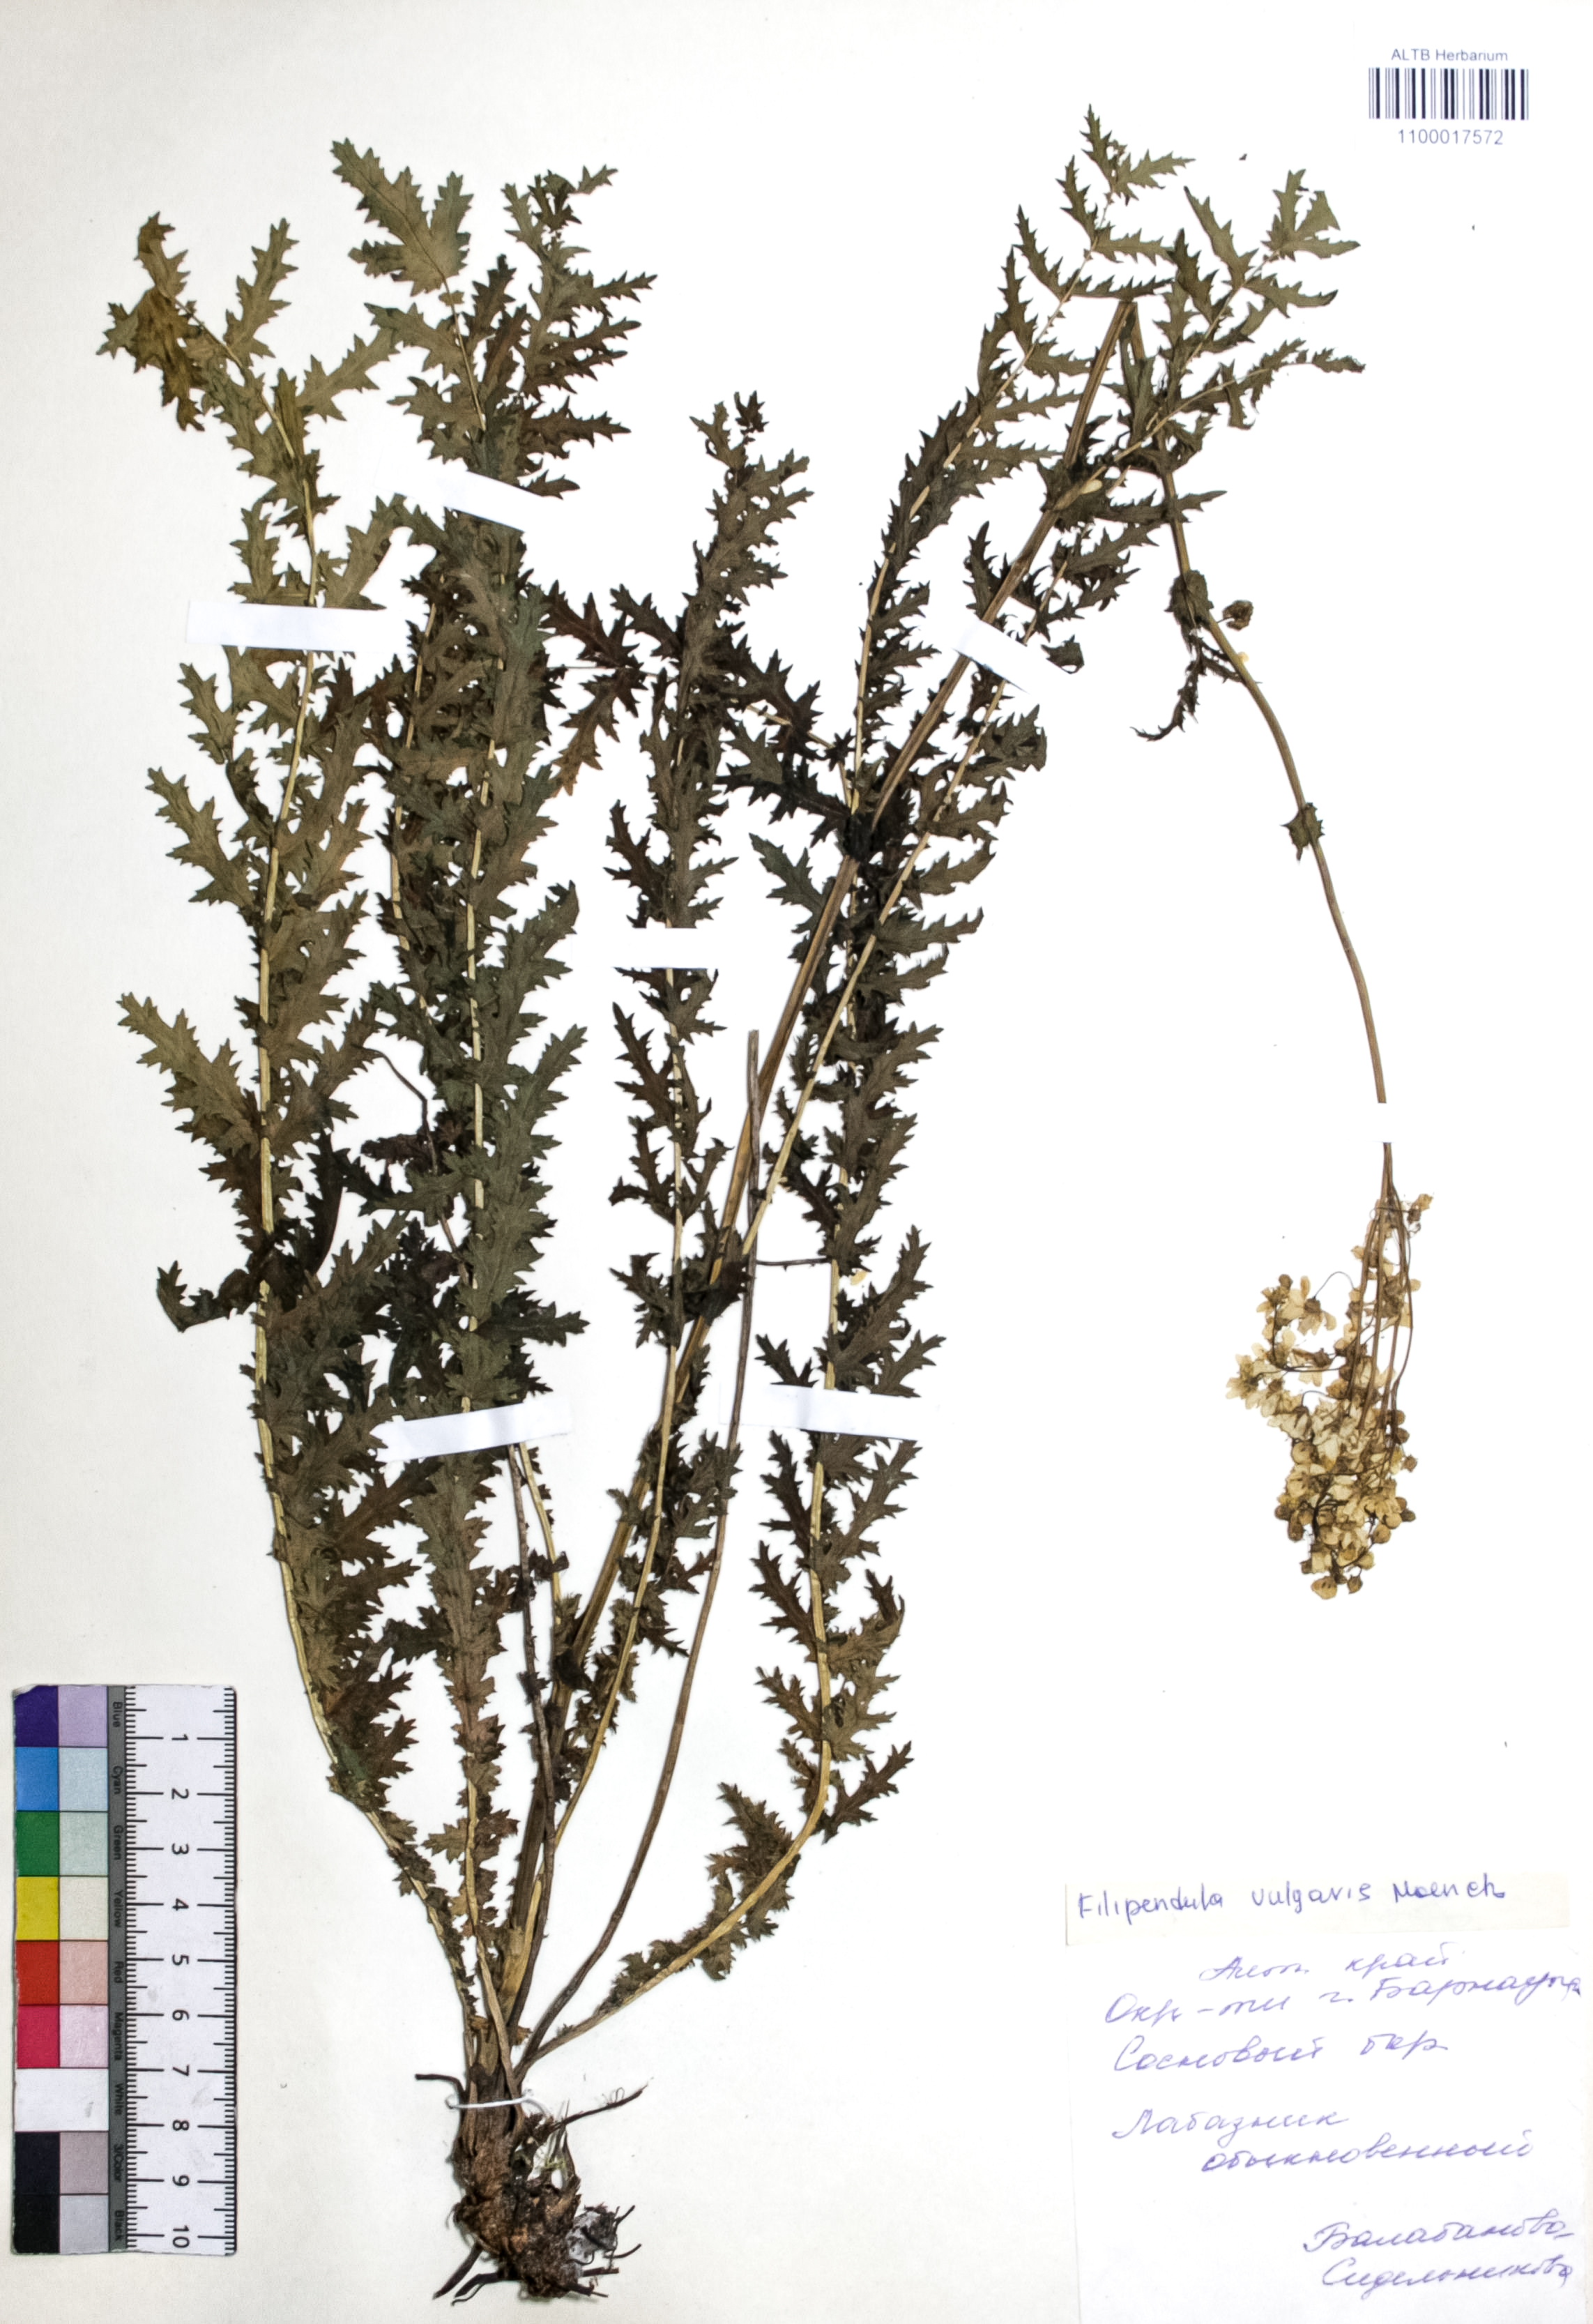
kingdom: Plantae
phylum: Tracheophyta
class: Magnoliopsida
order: Rosales
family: Rosaceae
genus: Filipendula
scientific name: Filipendula vulgaris
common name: Dropwort
